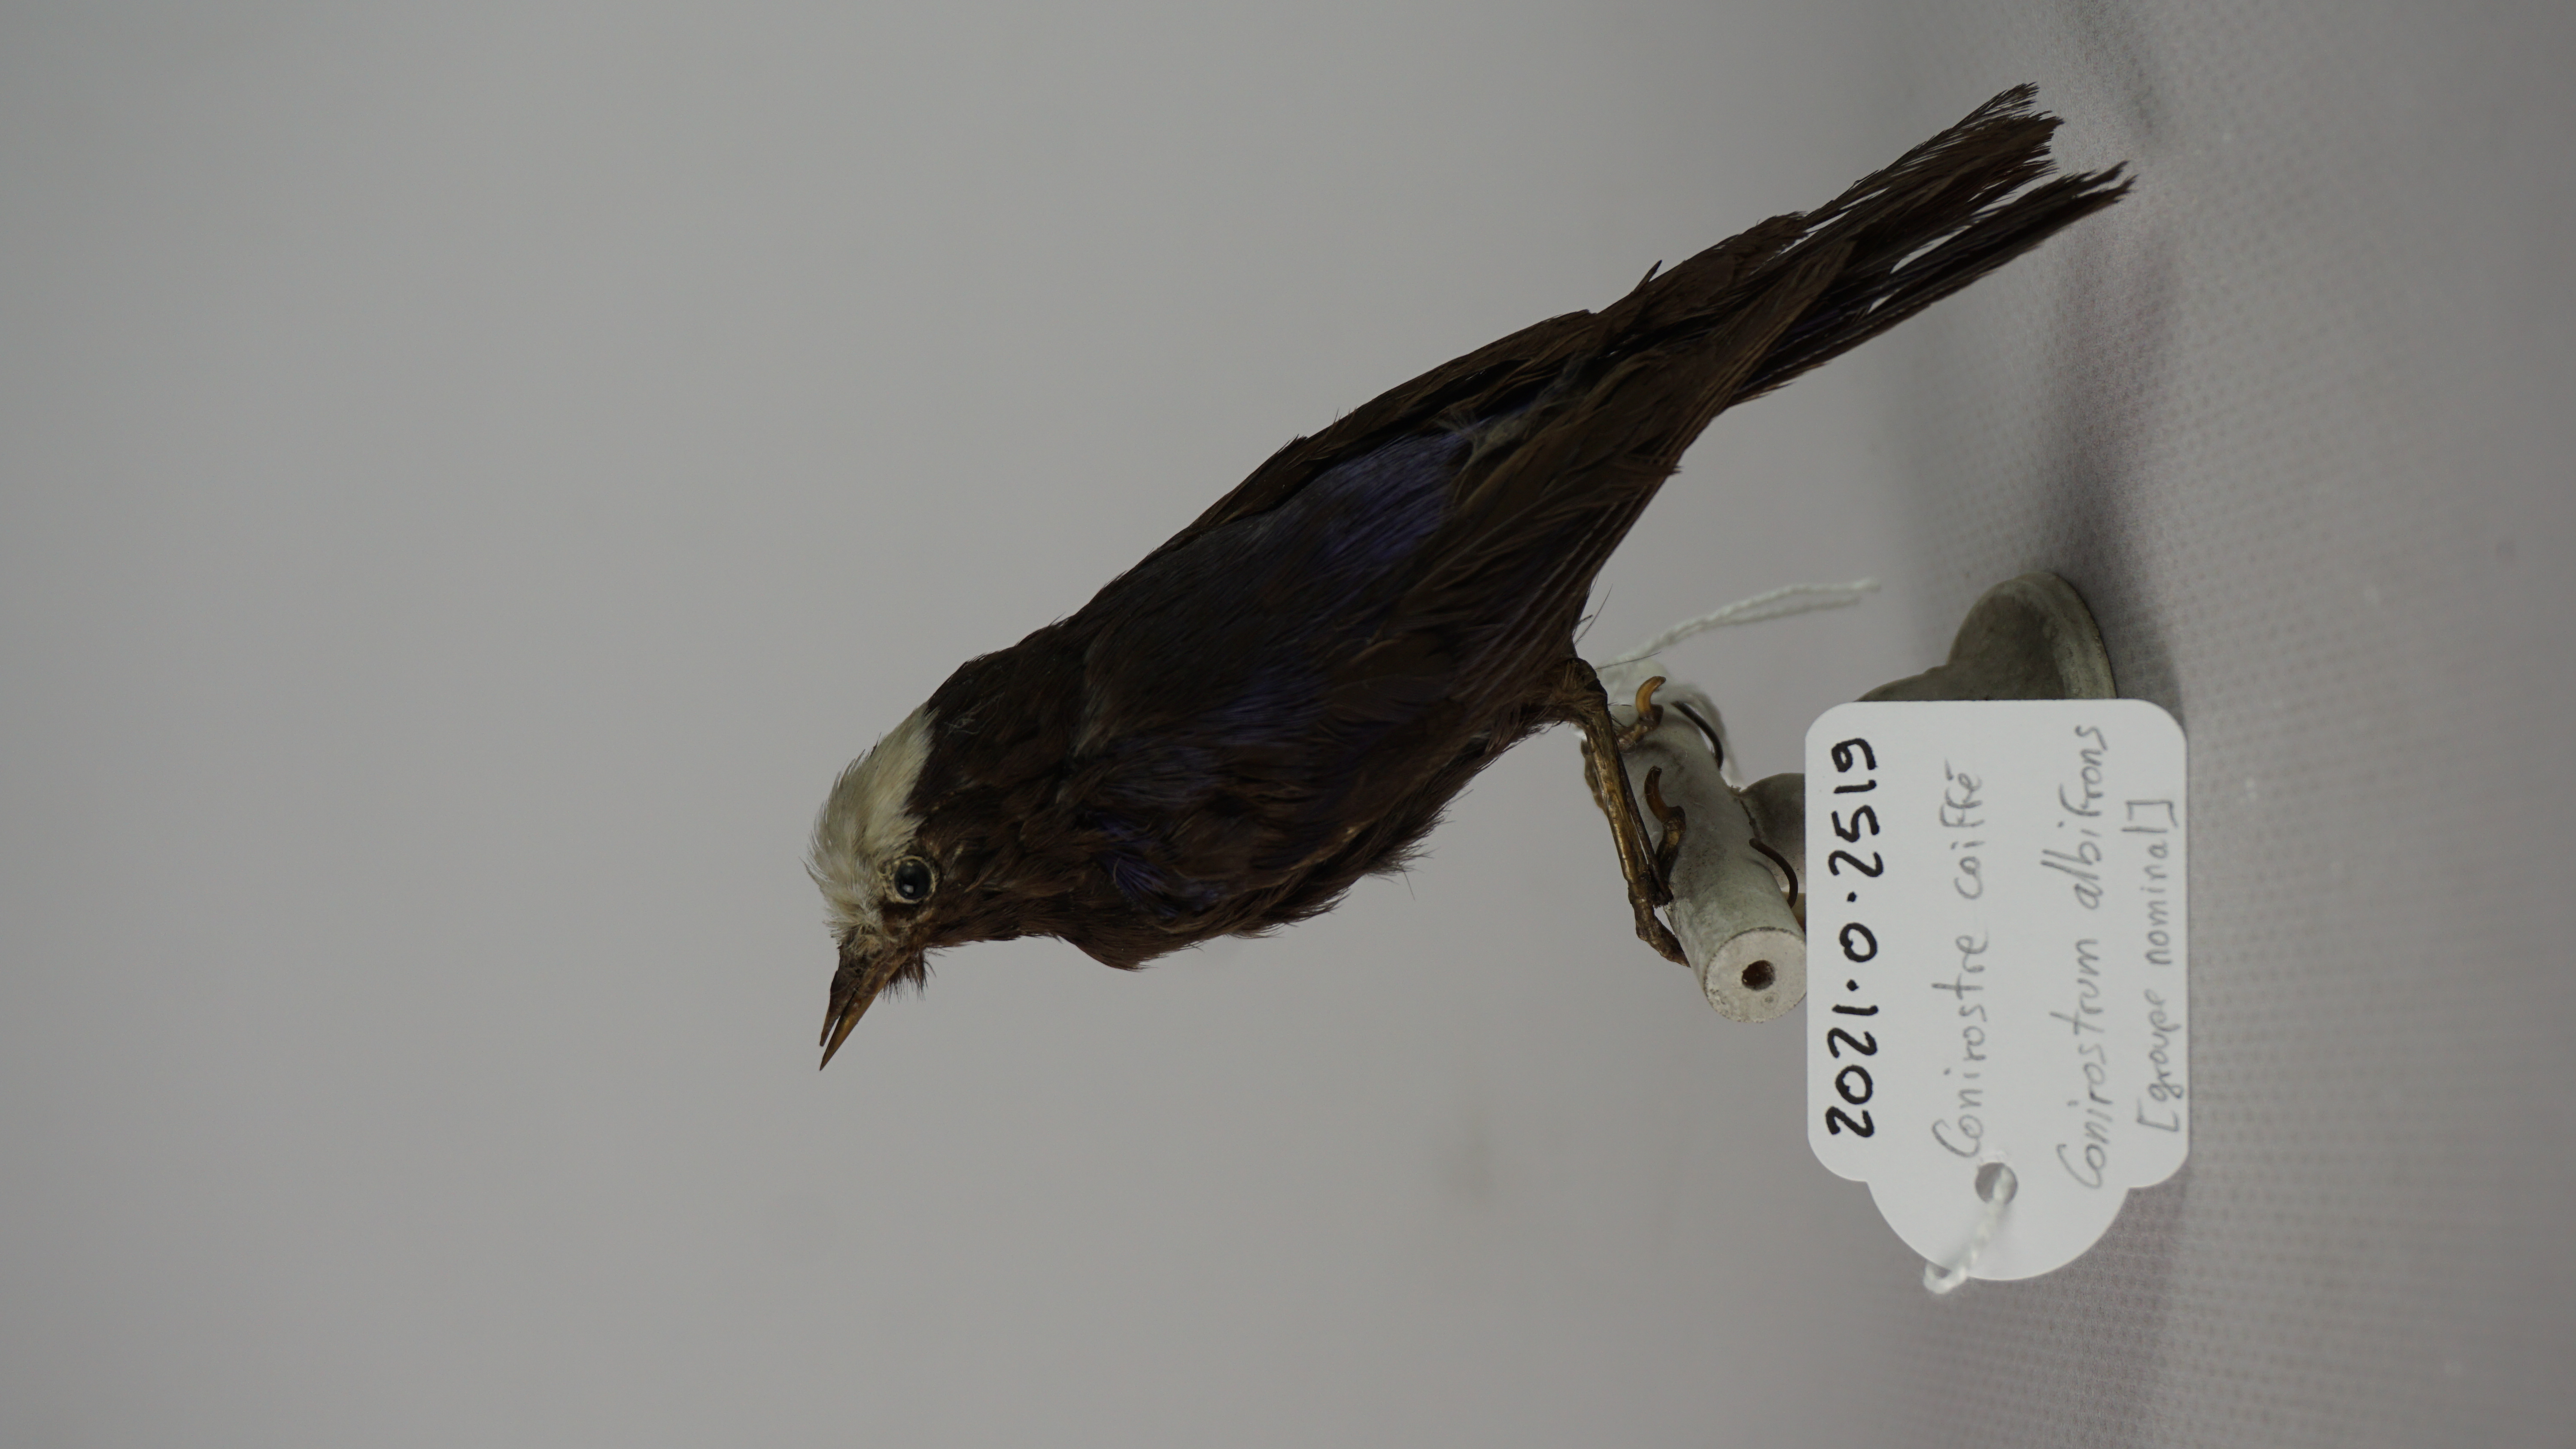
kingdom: Animalia
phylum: Chordata
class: Aves
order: Passeriformes
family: Thraupidae
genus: Conirostrum
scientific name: Conirostrum albifrons
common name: Capped conebill
